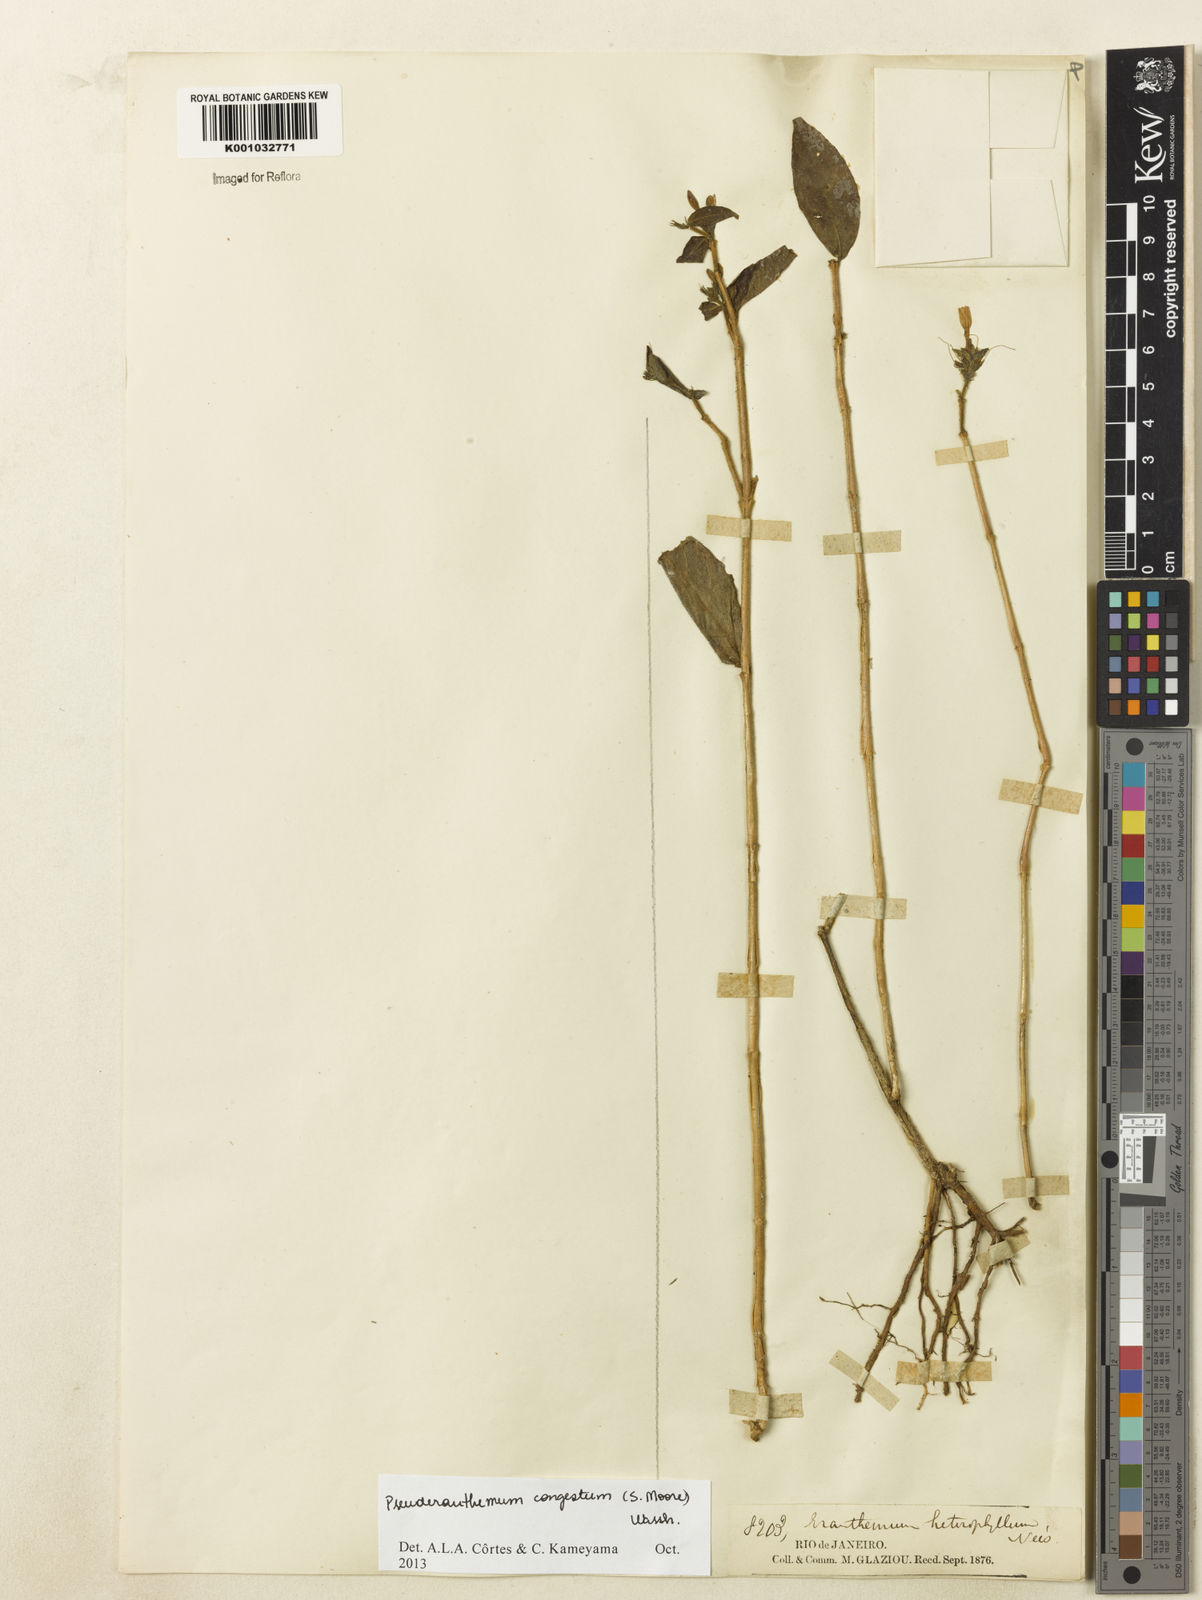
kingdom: Plantae
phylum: Tracheophyta
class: Magnoliopsida
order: Lamiales
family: Acanthaceae
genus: Pseuderanthemum
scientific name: Pseuderanthemum
